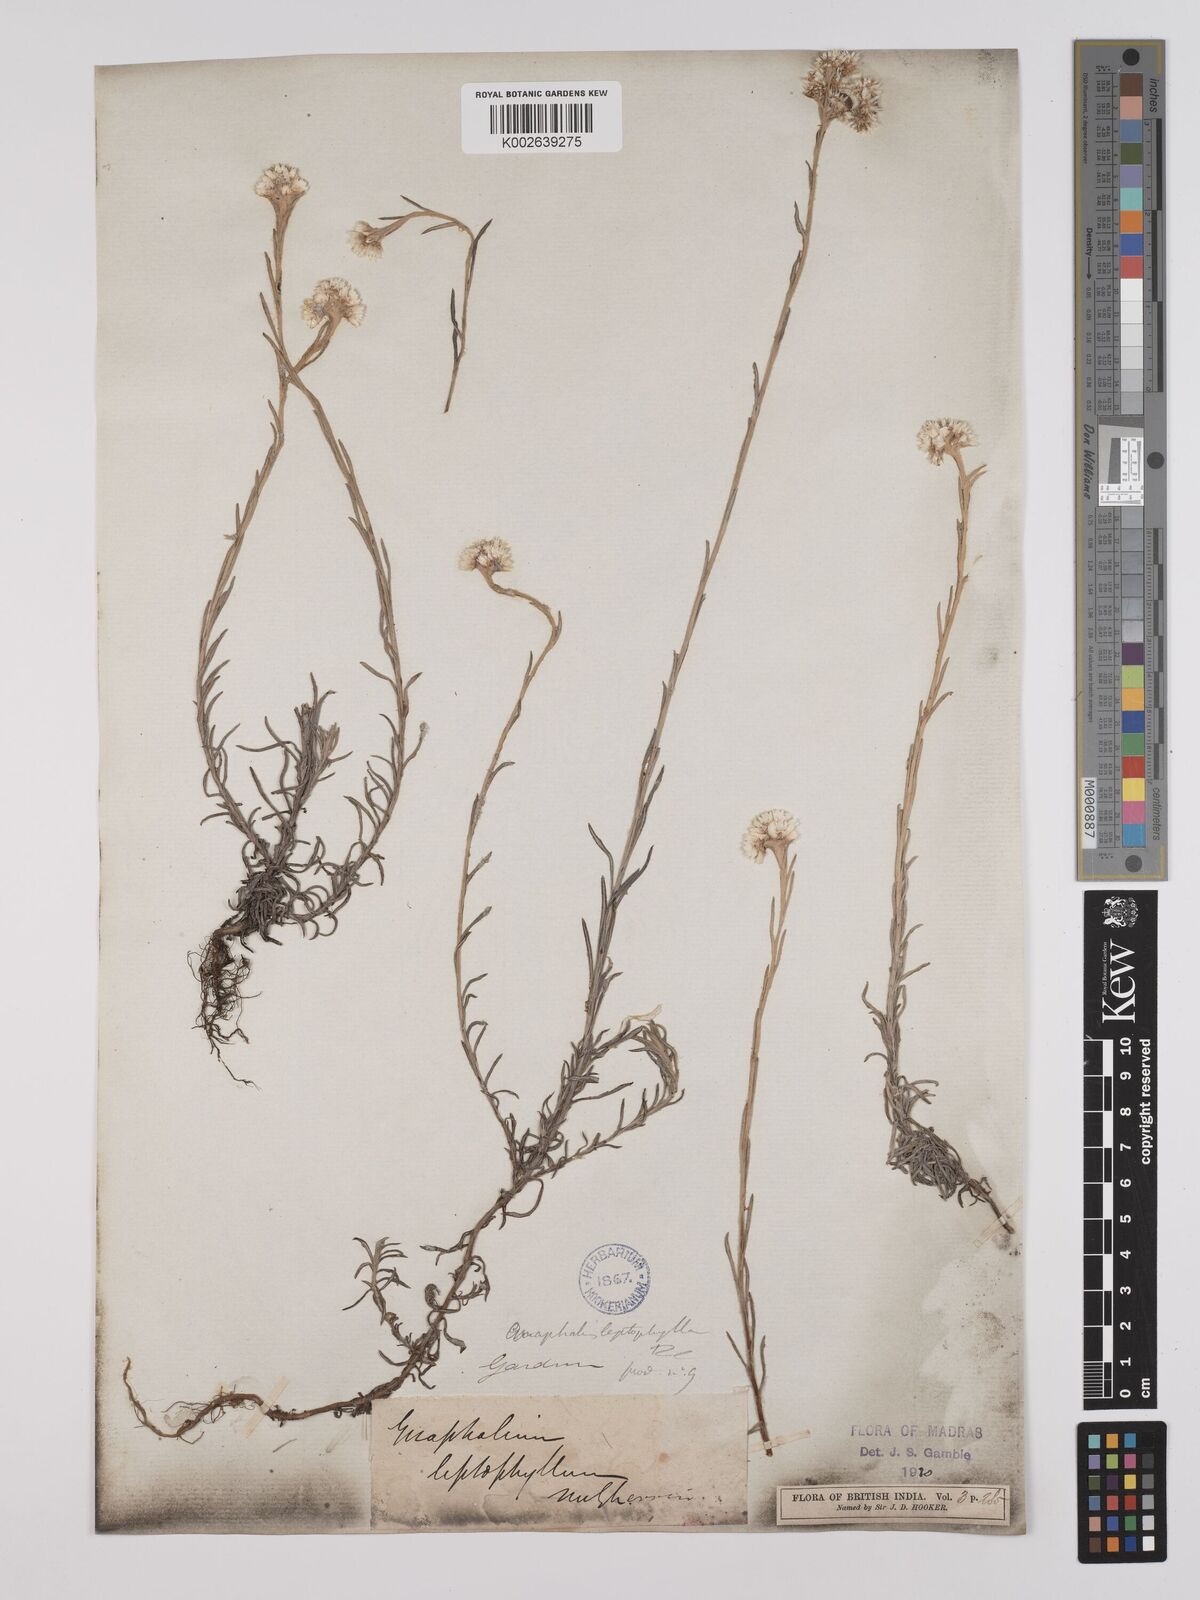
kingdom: Plantae
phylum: Tracheophyta
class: Magnoliopsida
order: Asterales
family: Asteraceae
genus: Anaphalis
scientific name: Anaphalis leptophylla
